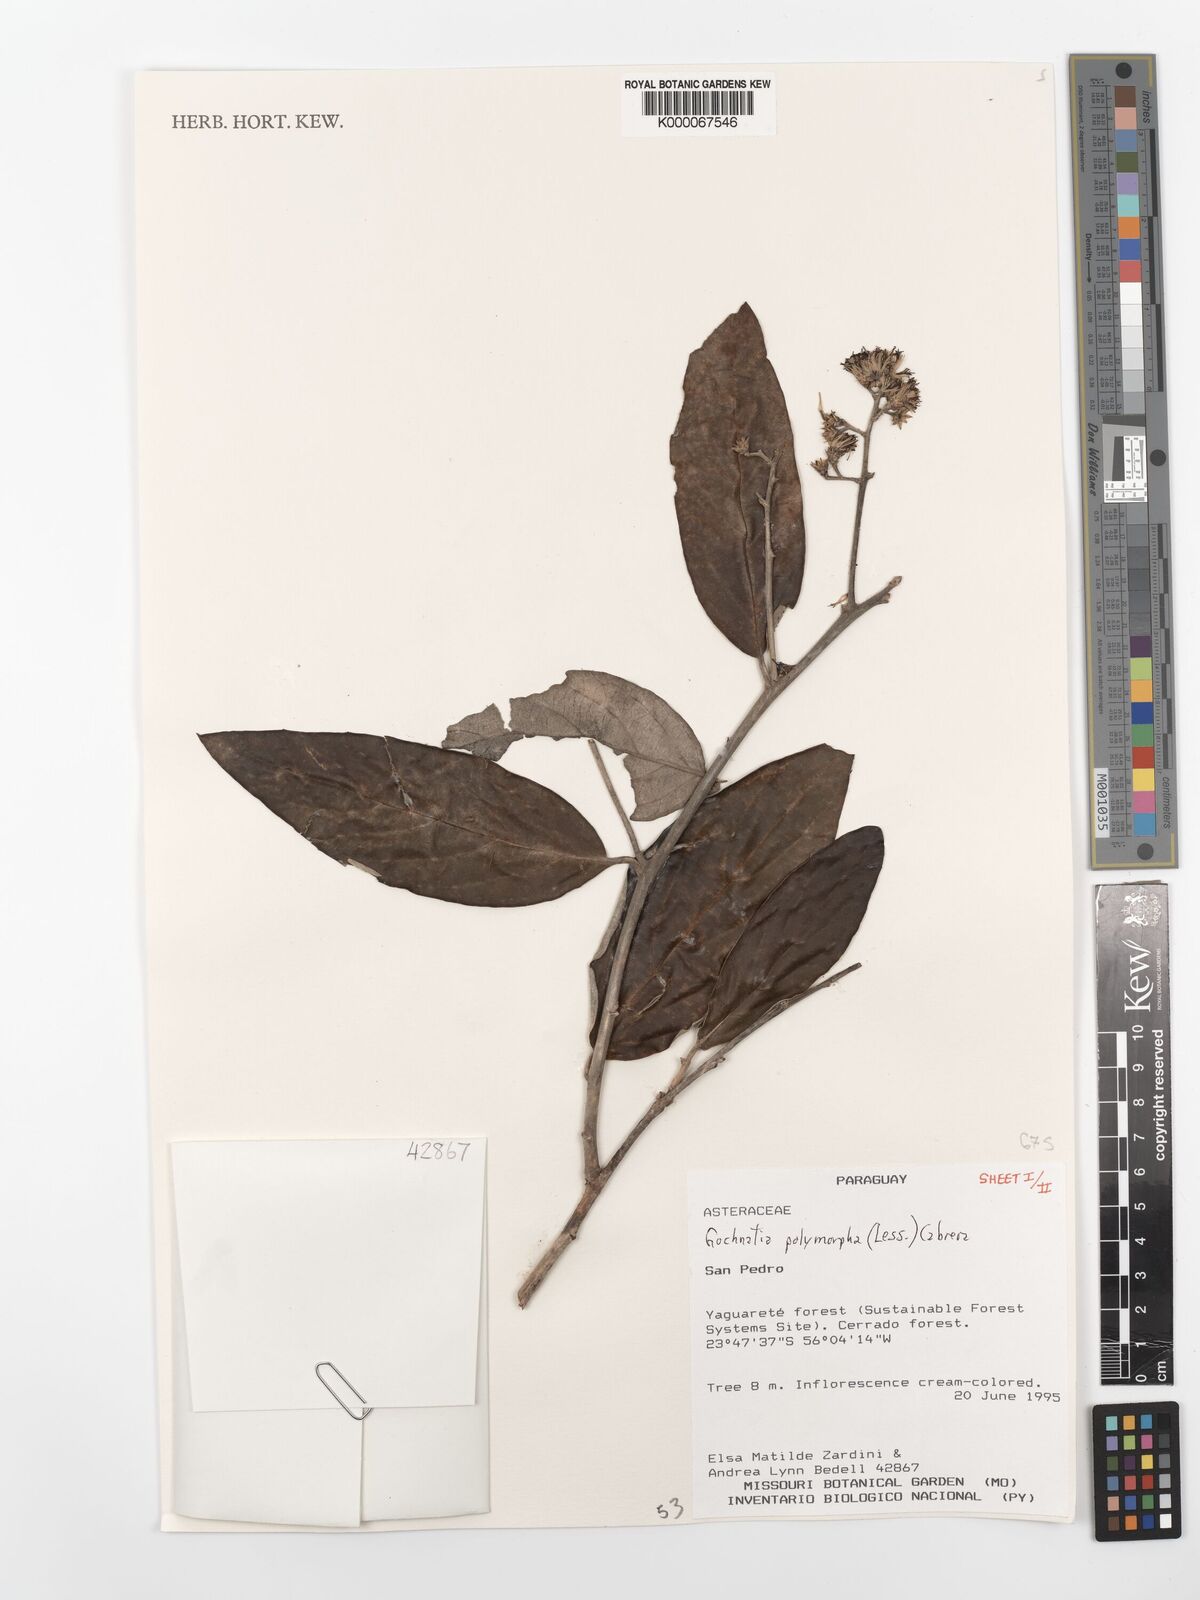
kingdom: Plantae
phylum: Tracheophyta
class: Magnoliopsida
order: Asterales
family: Asteraceae
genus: Moquiniastrum
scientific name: Moquiniastrum polymorphum
